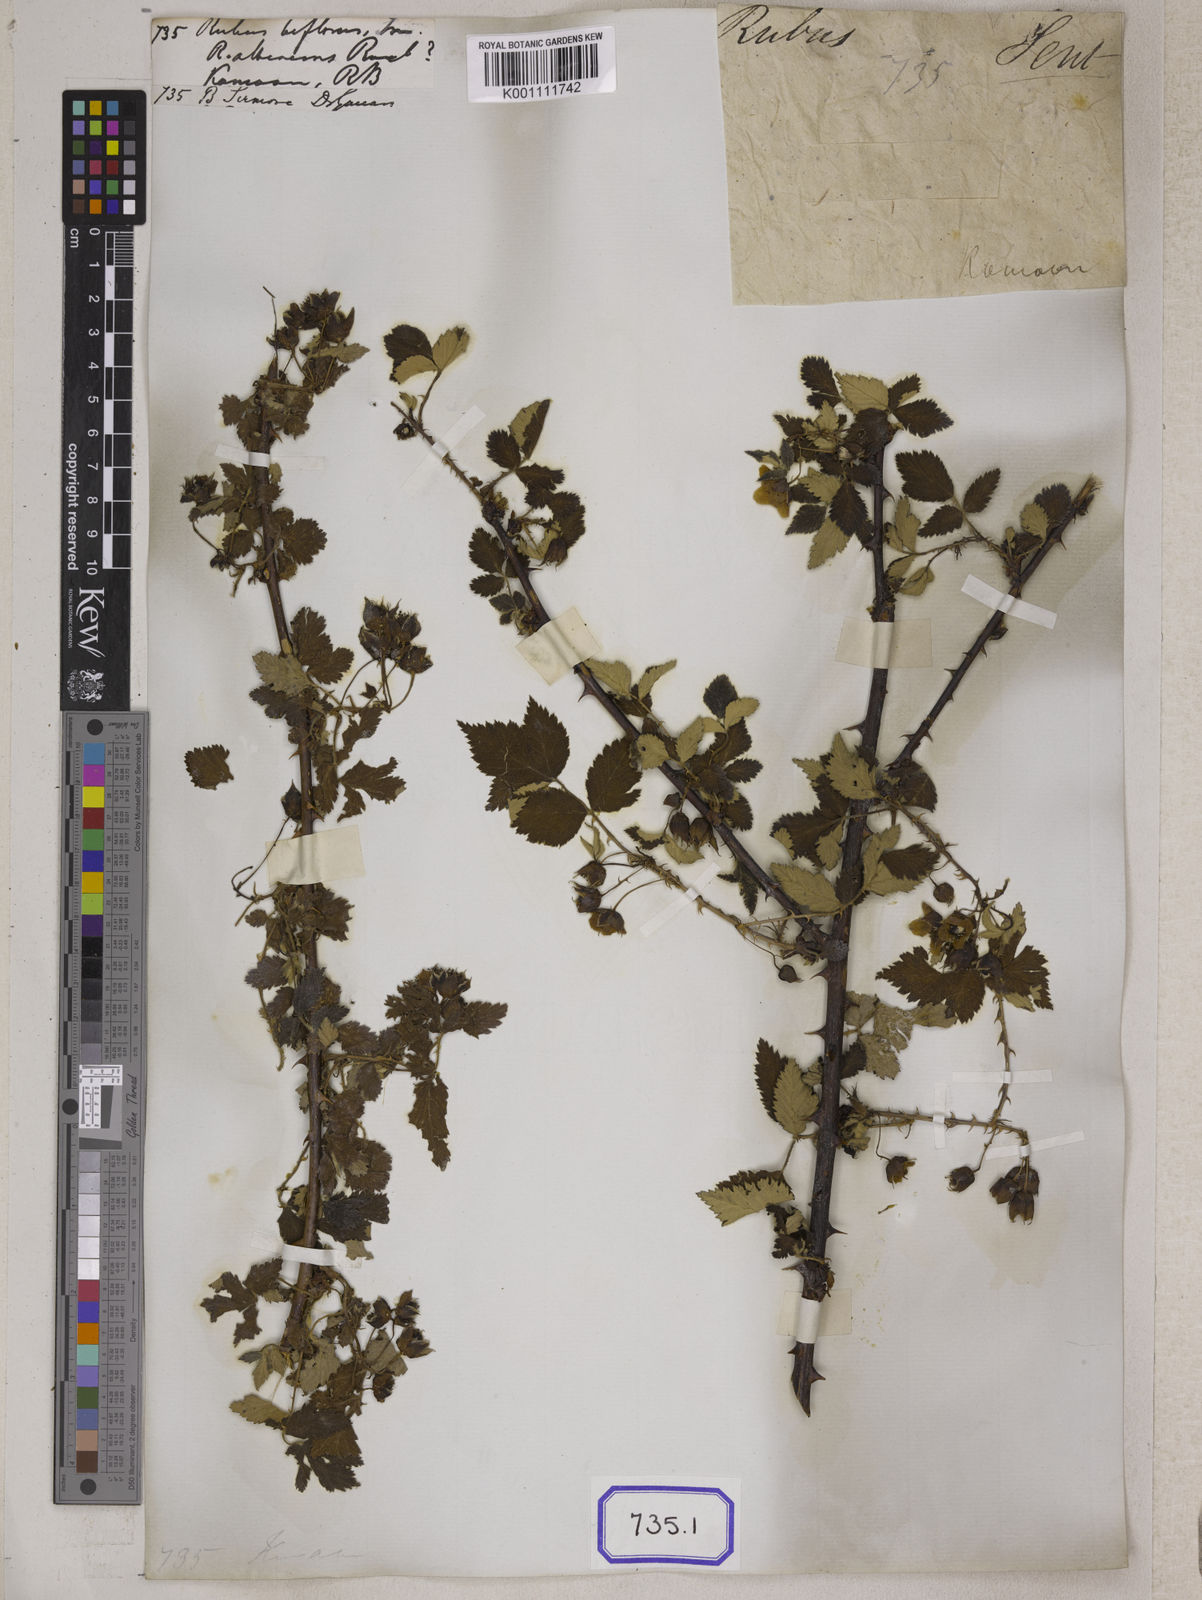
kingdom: Plantae
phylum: Tracheophyta
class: Magnoliopsida
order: Rosales
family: Rosaceae
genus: Rubus
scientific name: Rubus biflorus
